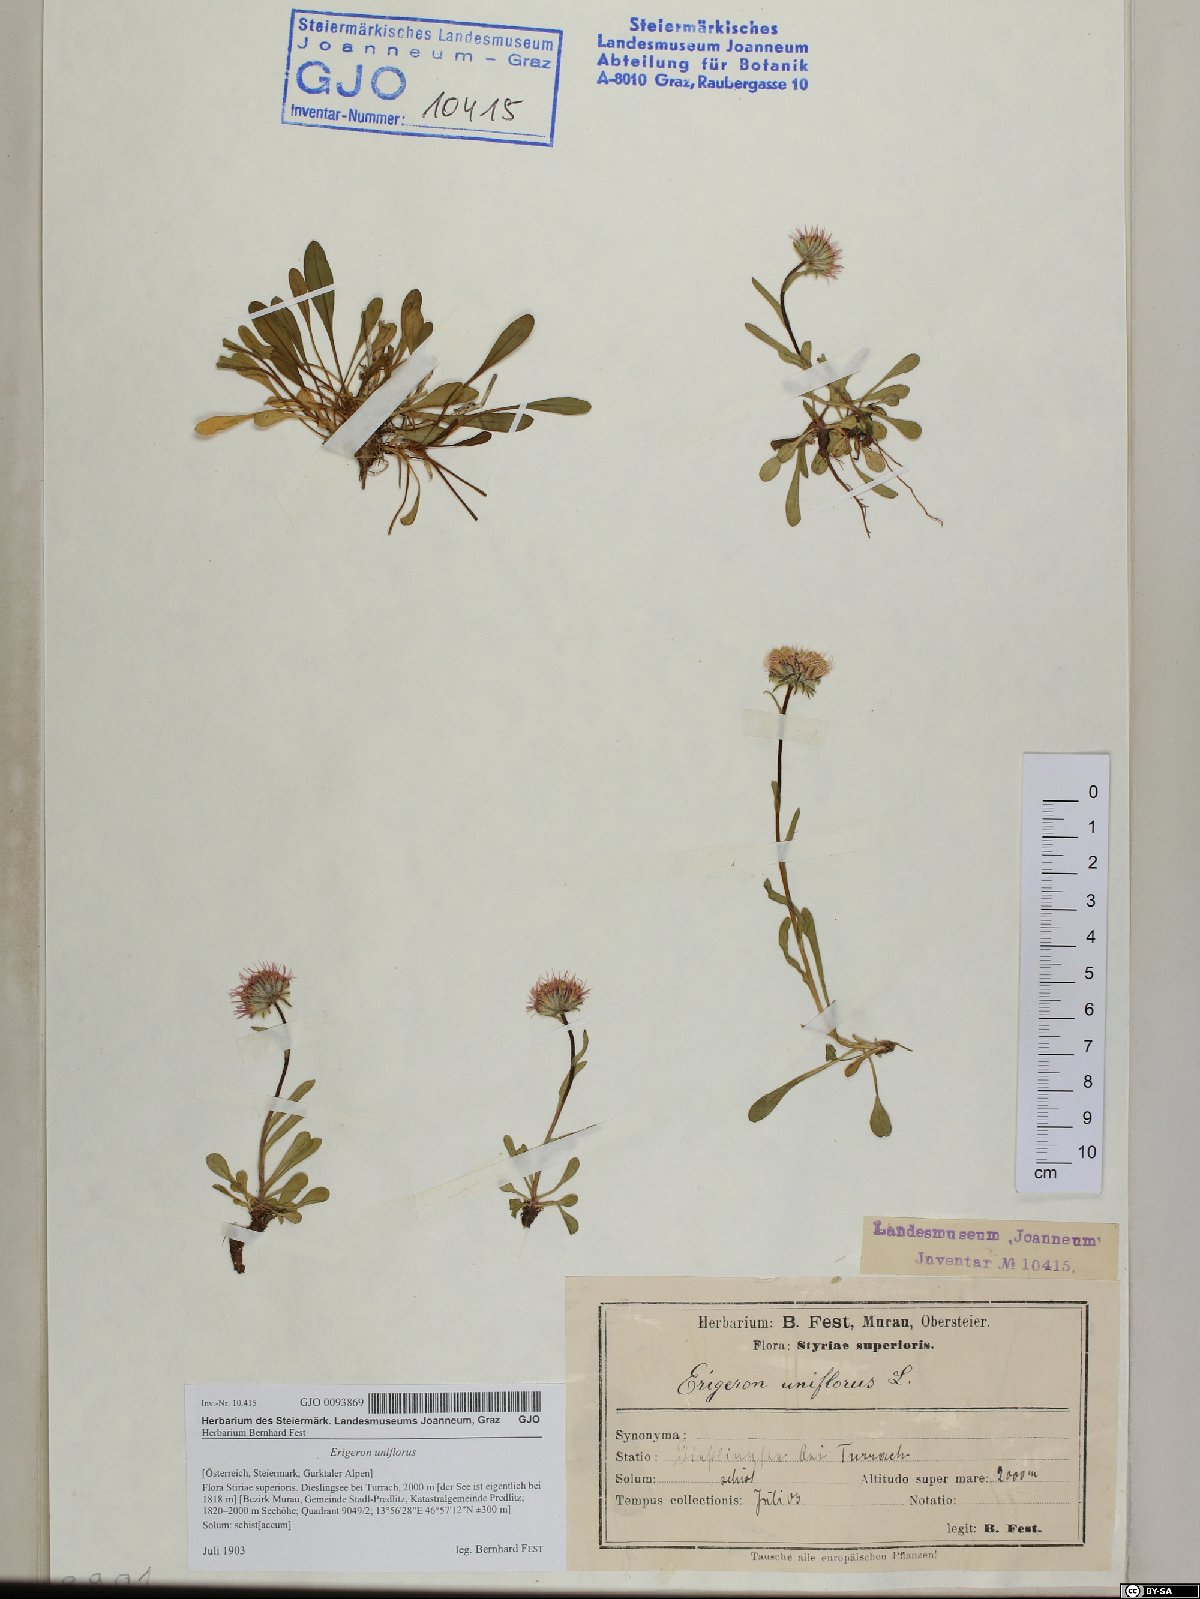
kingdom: Plantae
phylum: Tracheophyta
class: Magnoliopsida
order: Asterales
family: Asteraceae
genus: Erigeron
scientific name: Erigeron uniflorus
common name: Northern daisy
